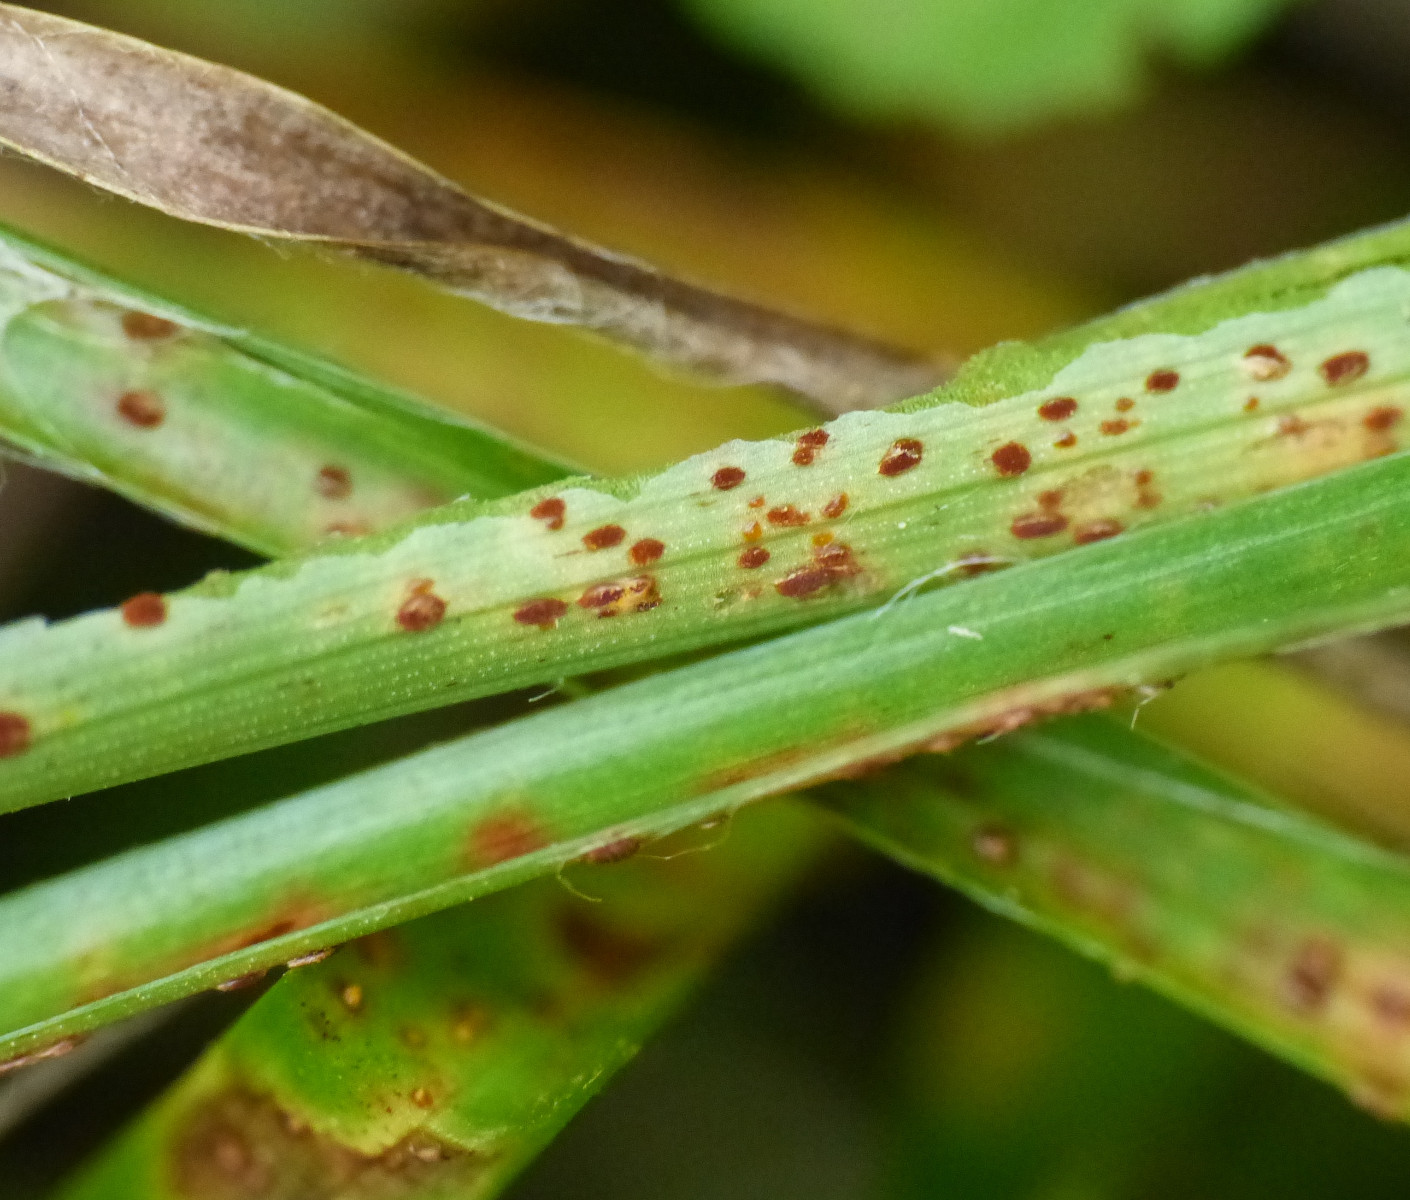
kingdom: Fungi
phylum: Basidiomycota
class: Pucciniomycetes
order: Pucciniales
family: Pucciniaceae
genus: Puccinia
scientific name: Puccinia luzulae
